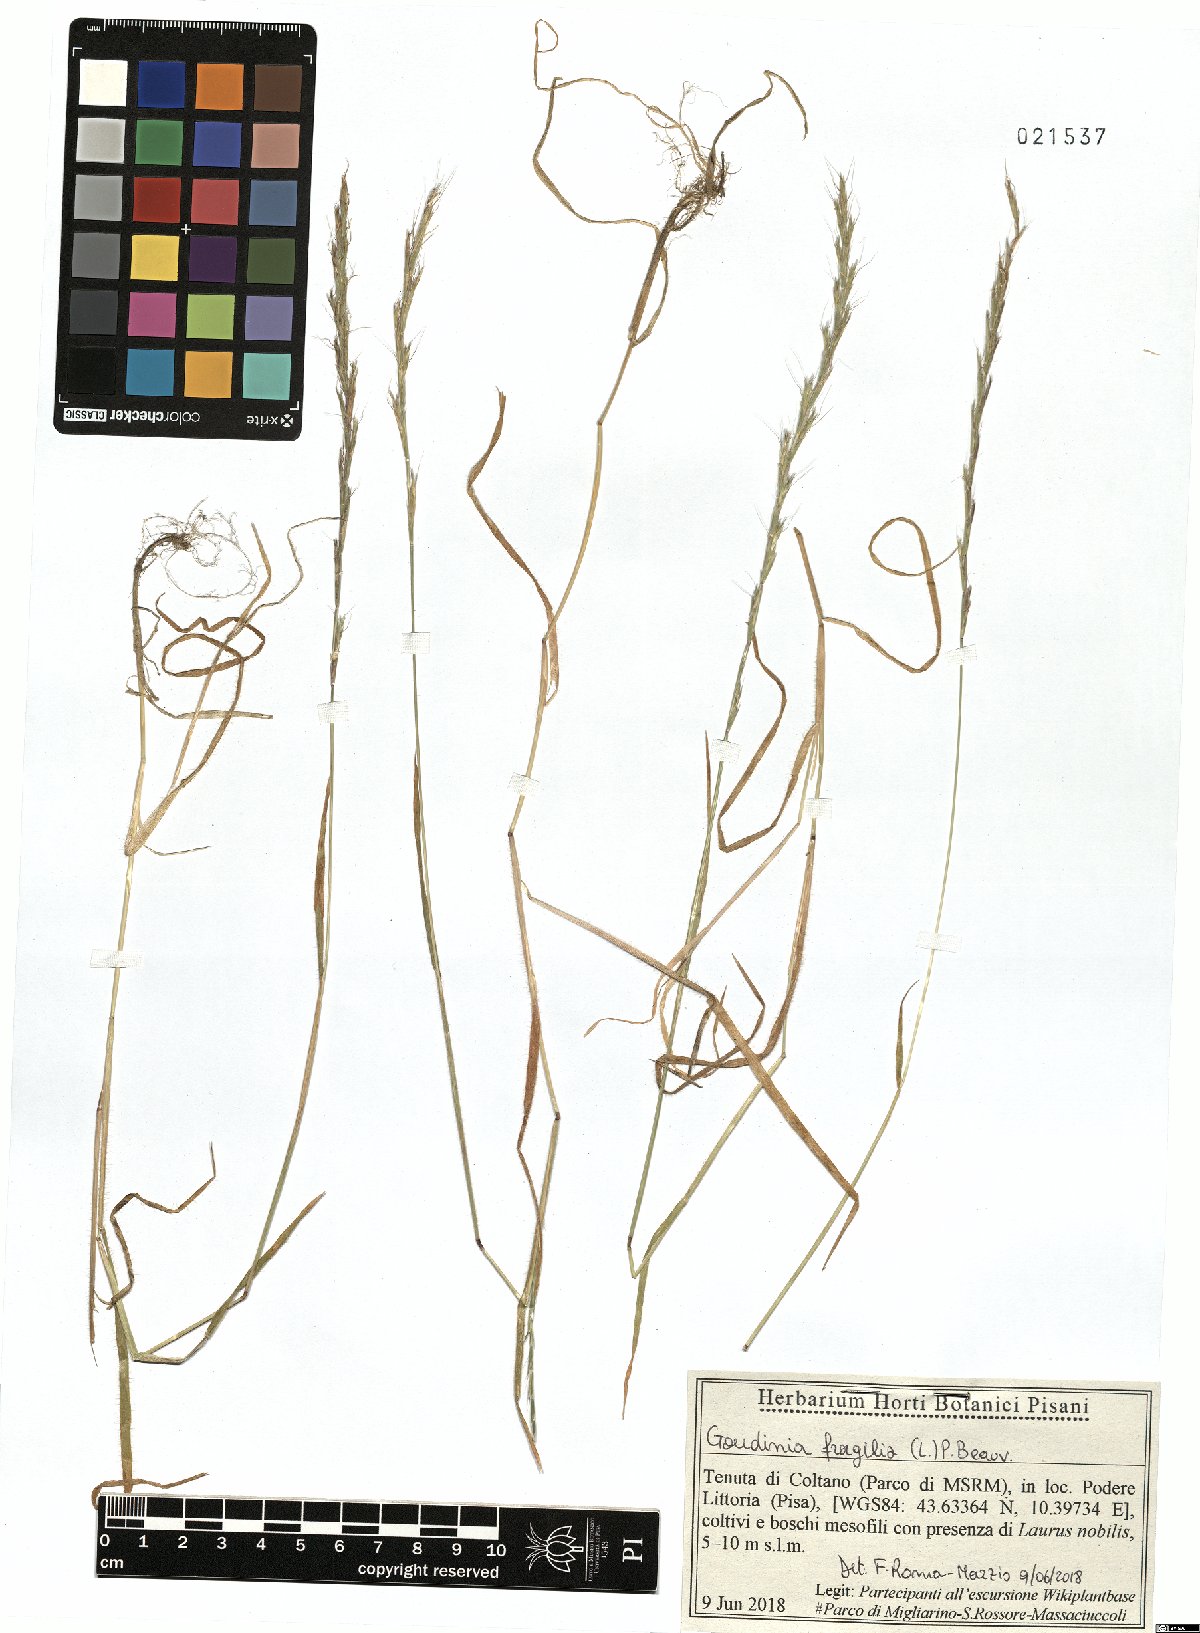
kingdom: Plantae
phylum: Tracheophyta
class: Liliopsida
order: Poales
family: Poaceae
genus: Gaudinia
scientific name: Gaudinia fragilis
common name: French oat-grass
